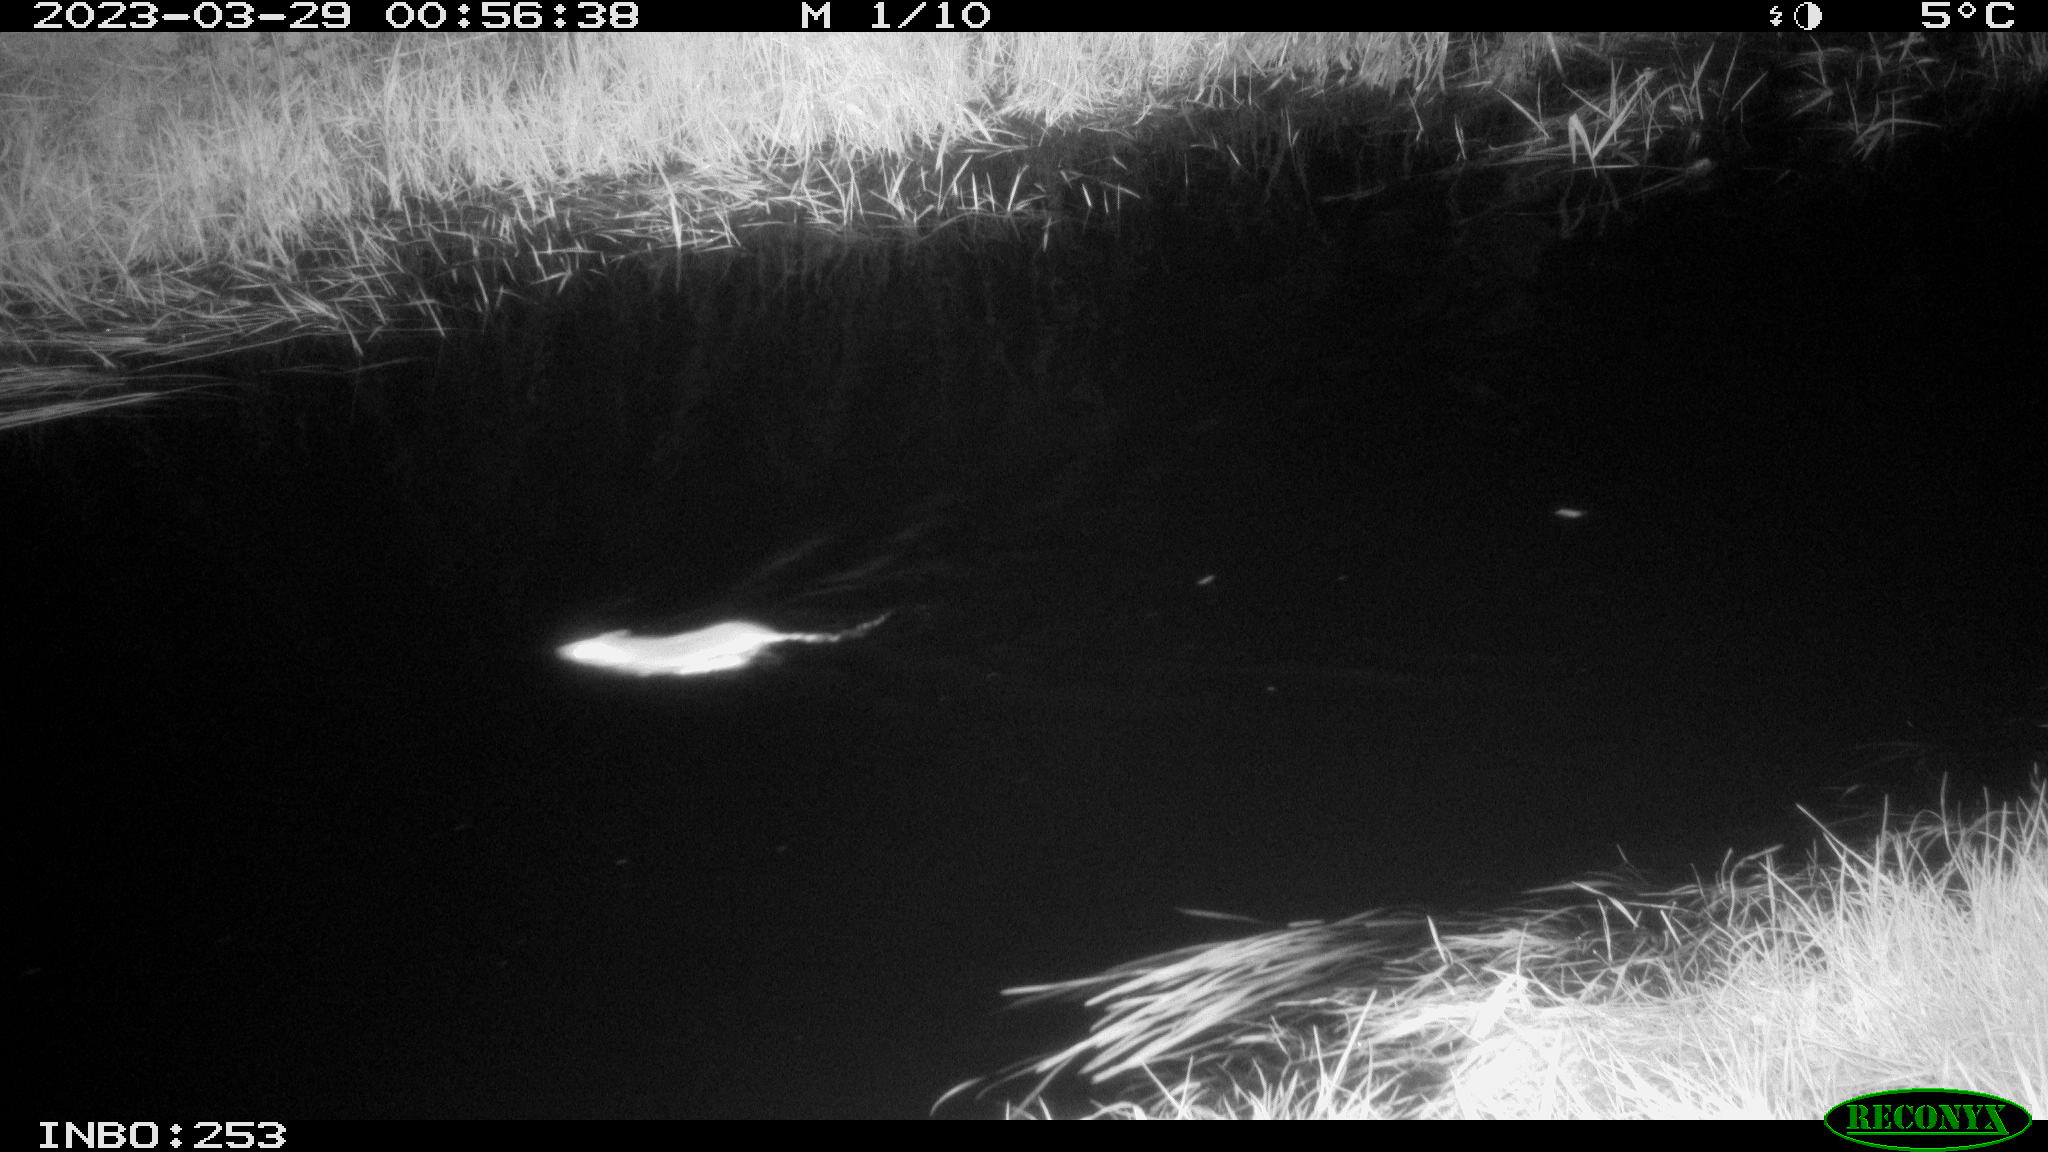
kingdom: Animalia
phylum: Chordata
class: Mammalia
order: Rodentia
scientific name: Rodentia
